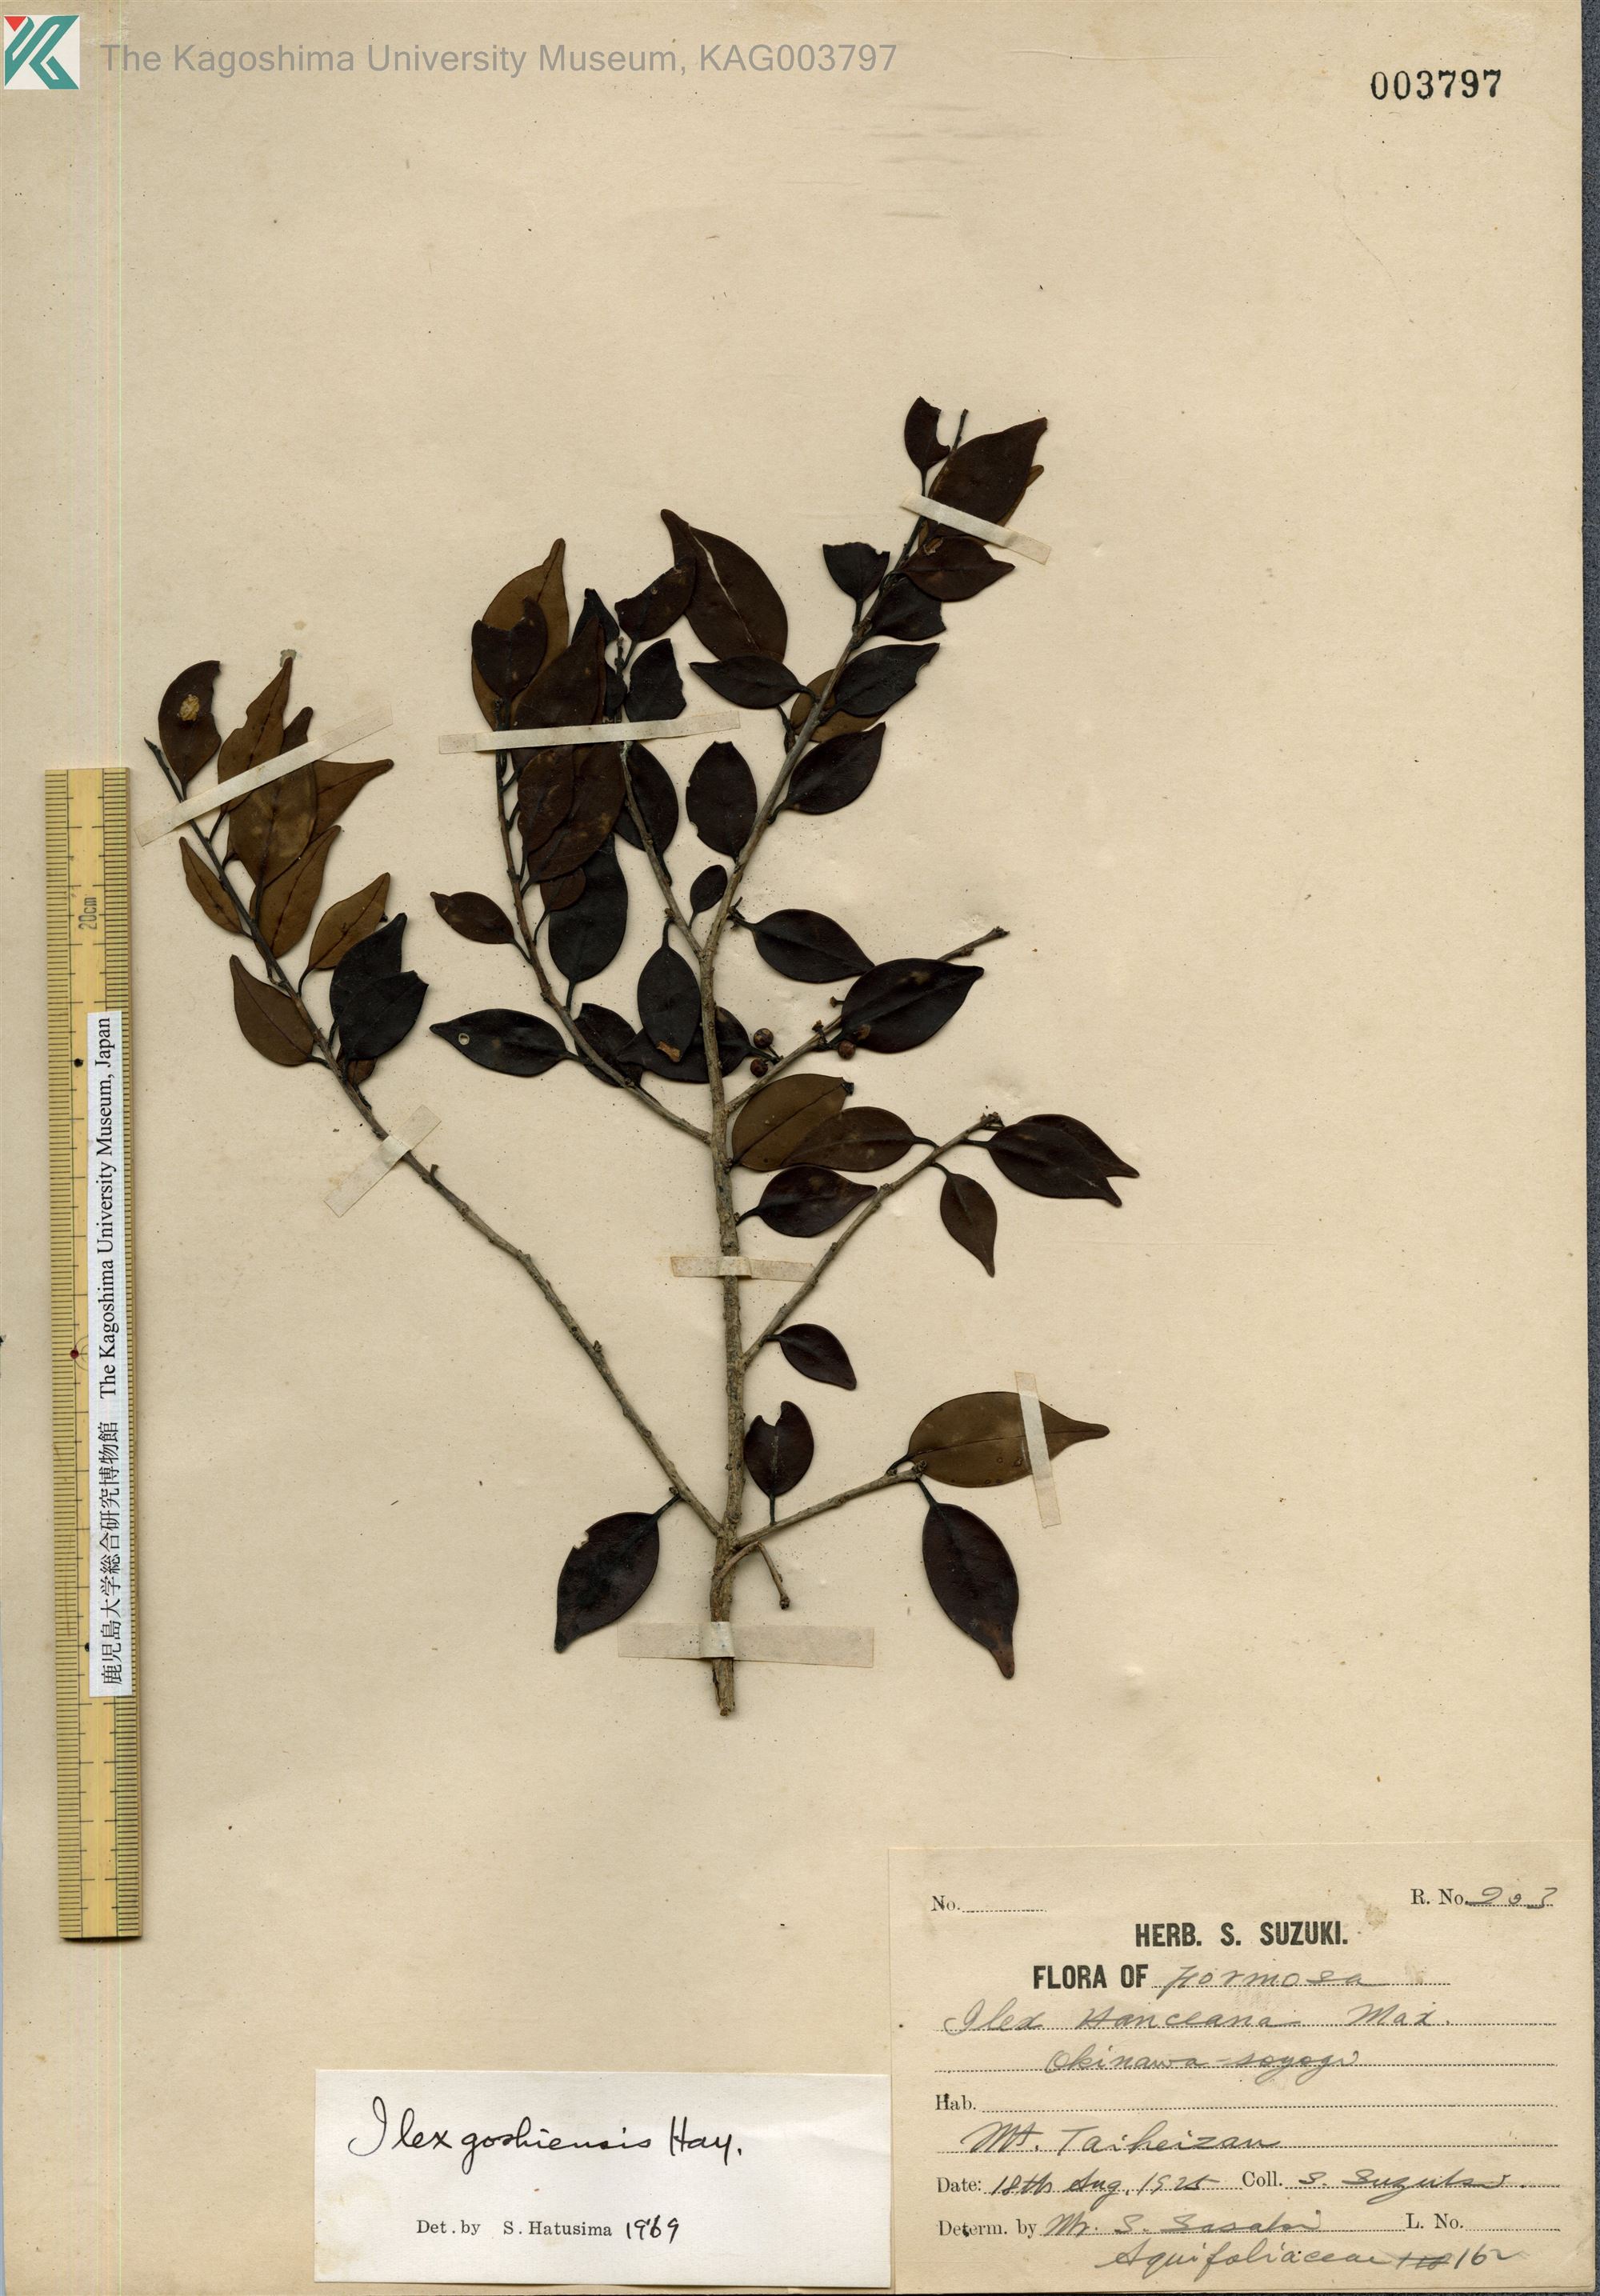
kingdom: Plantae
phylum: Tracheophyta
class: Magnoliopsida
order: Aquifoliales
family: Aquifoliaceae
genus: Ilex
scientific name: Ilex goshiensis
